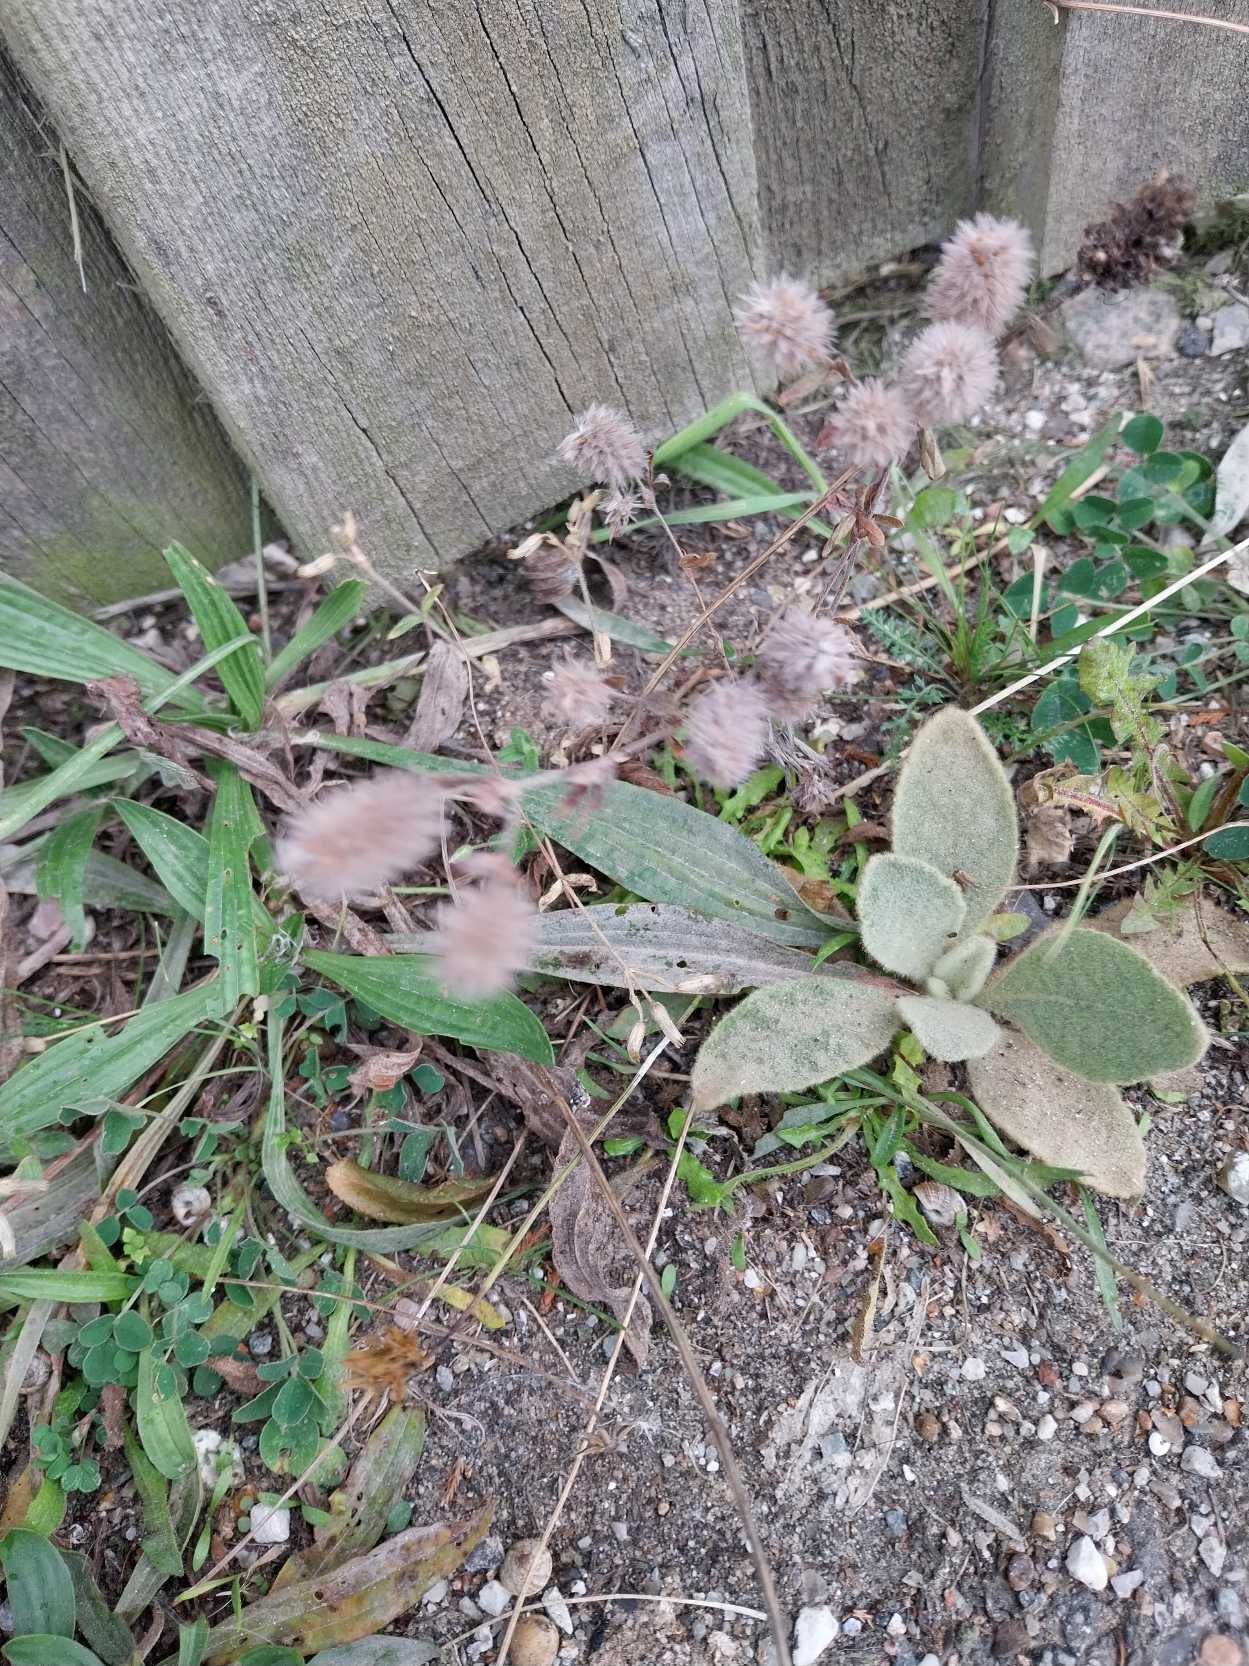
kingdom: Plantae
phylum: Tracheophyta
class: Magnoliopsida
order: Fabales
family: Fabaceae
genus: Trifolium
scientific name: Trifolium arvense
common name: Hare-kløver
